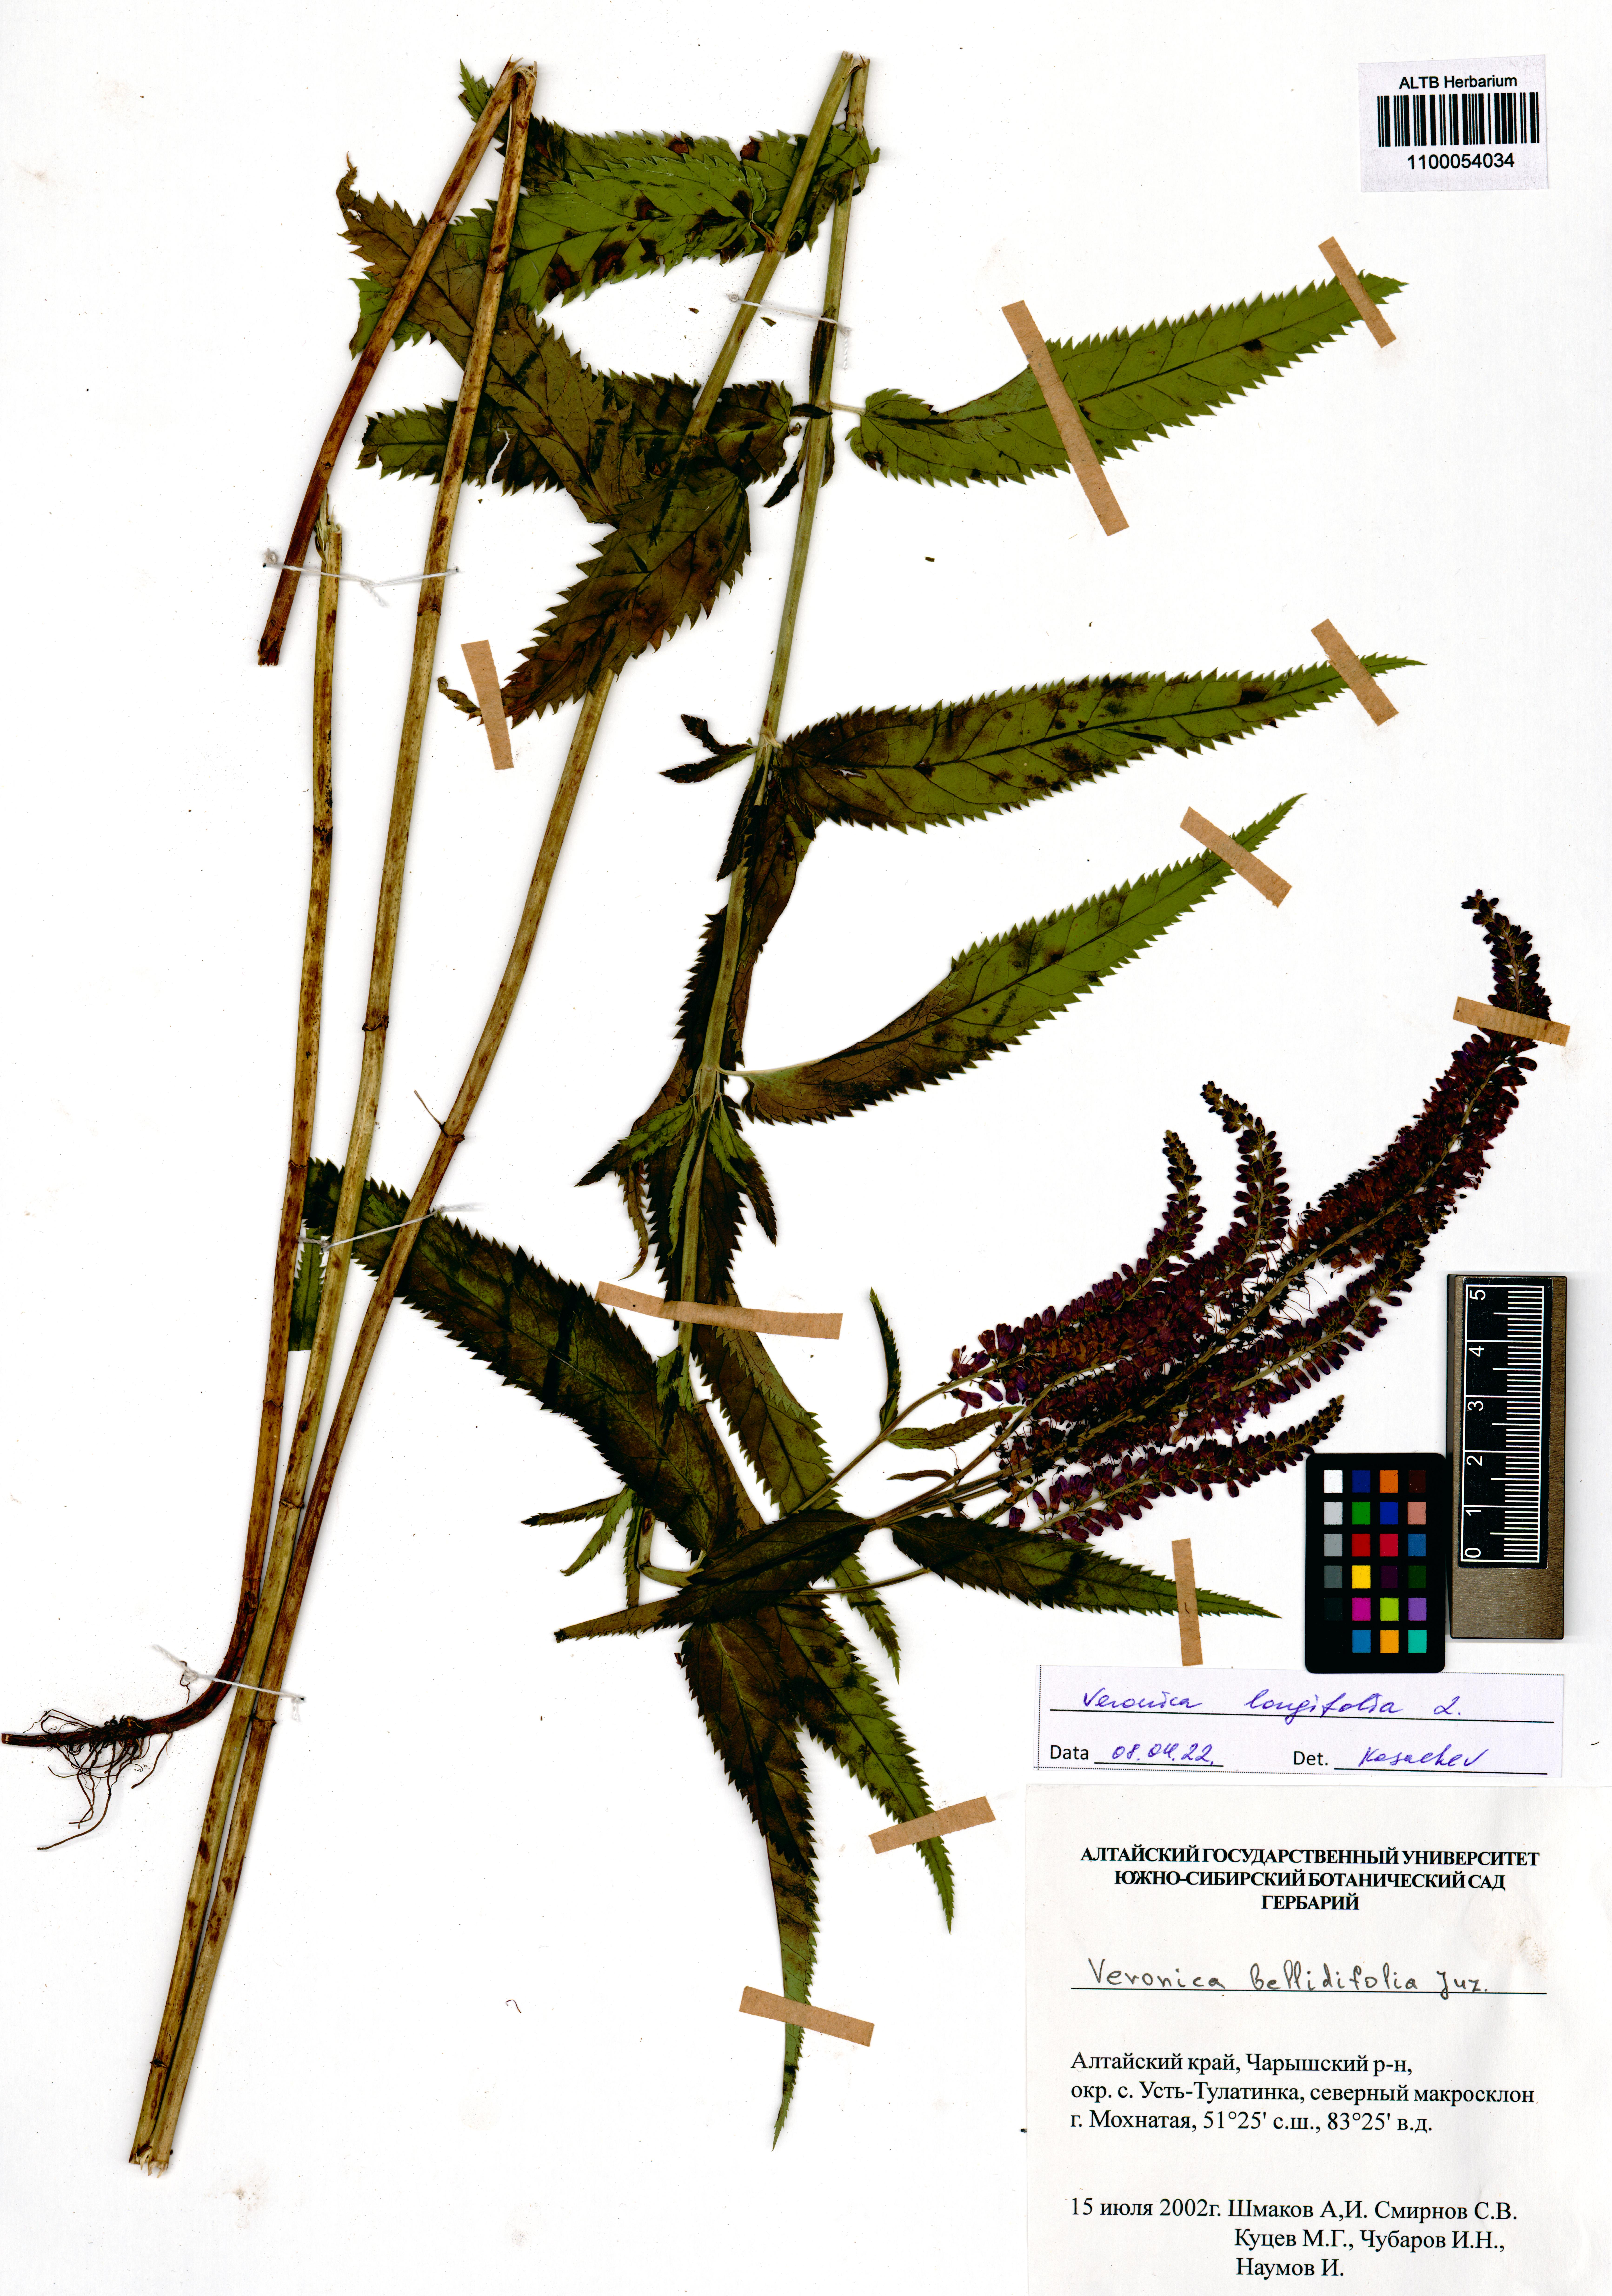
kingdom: Plantae
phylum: Tracheophyta
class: Magnoliopsida
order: Lamiales
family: Plantaginaceae
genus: Veronica
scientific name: Veronica longifolia
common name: Garden speedwell
